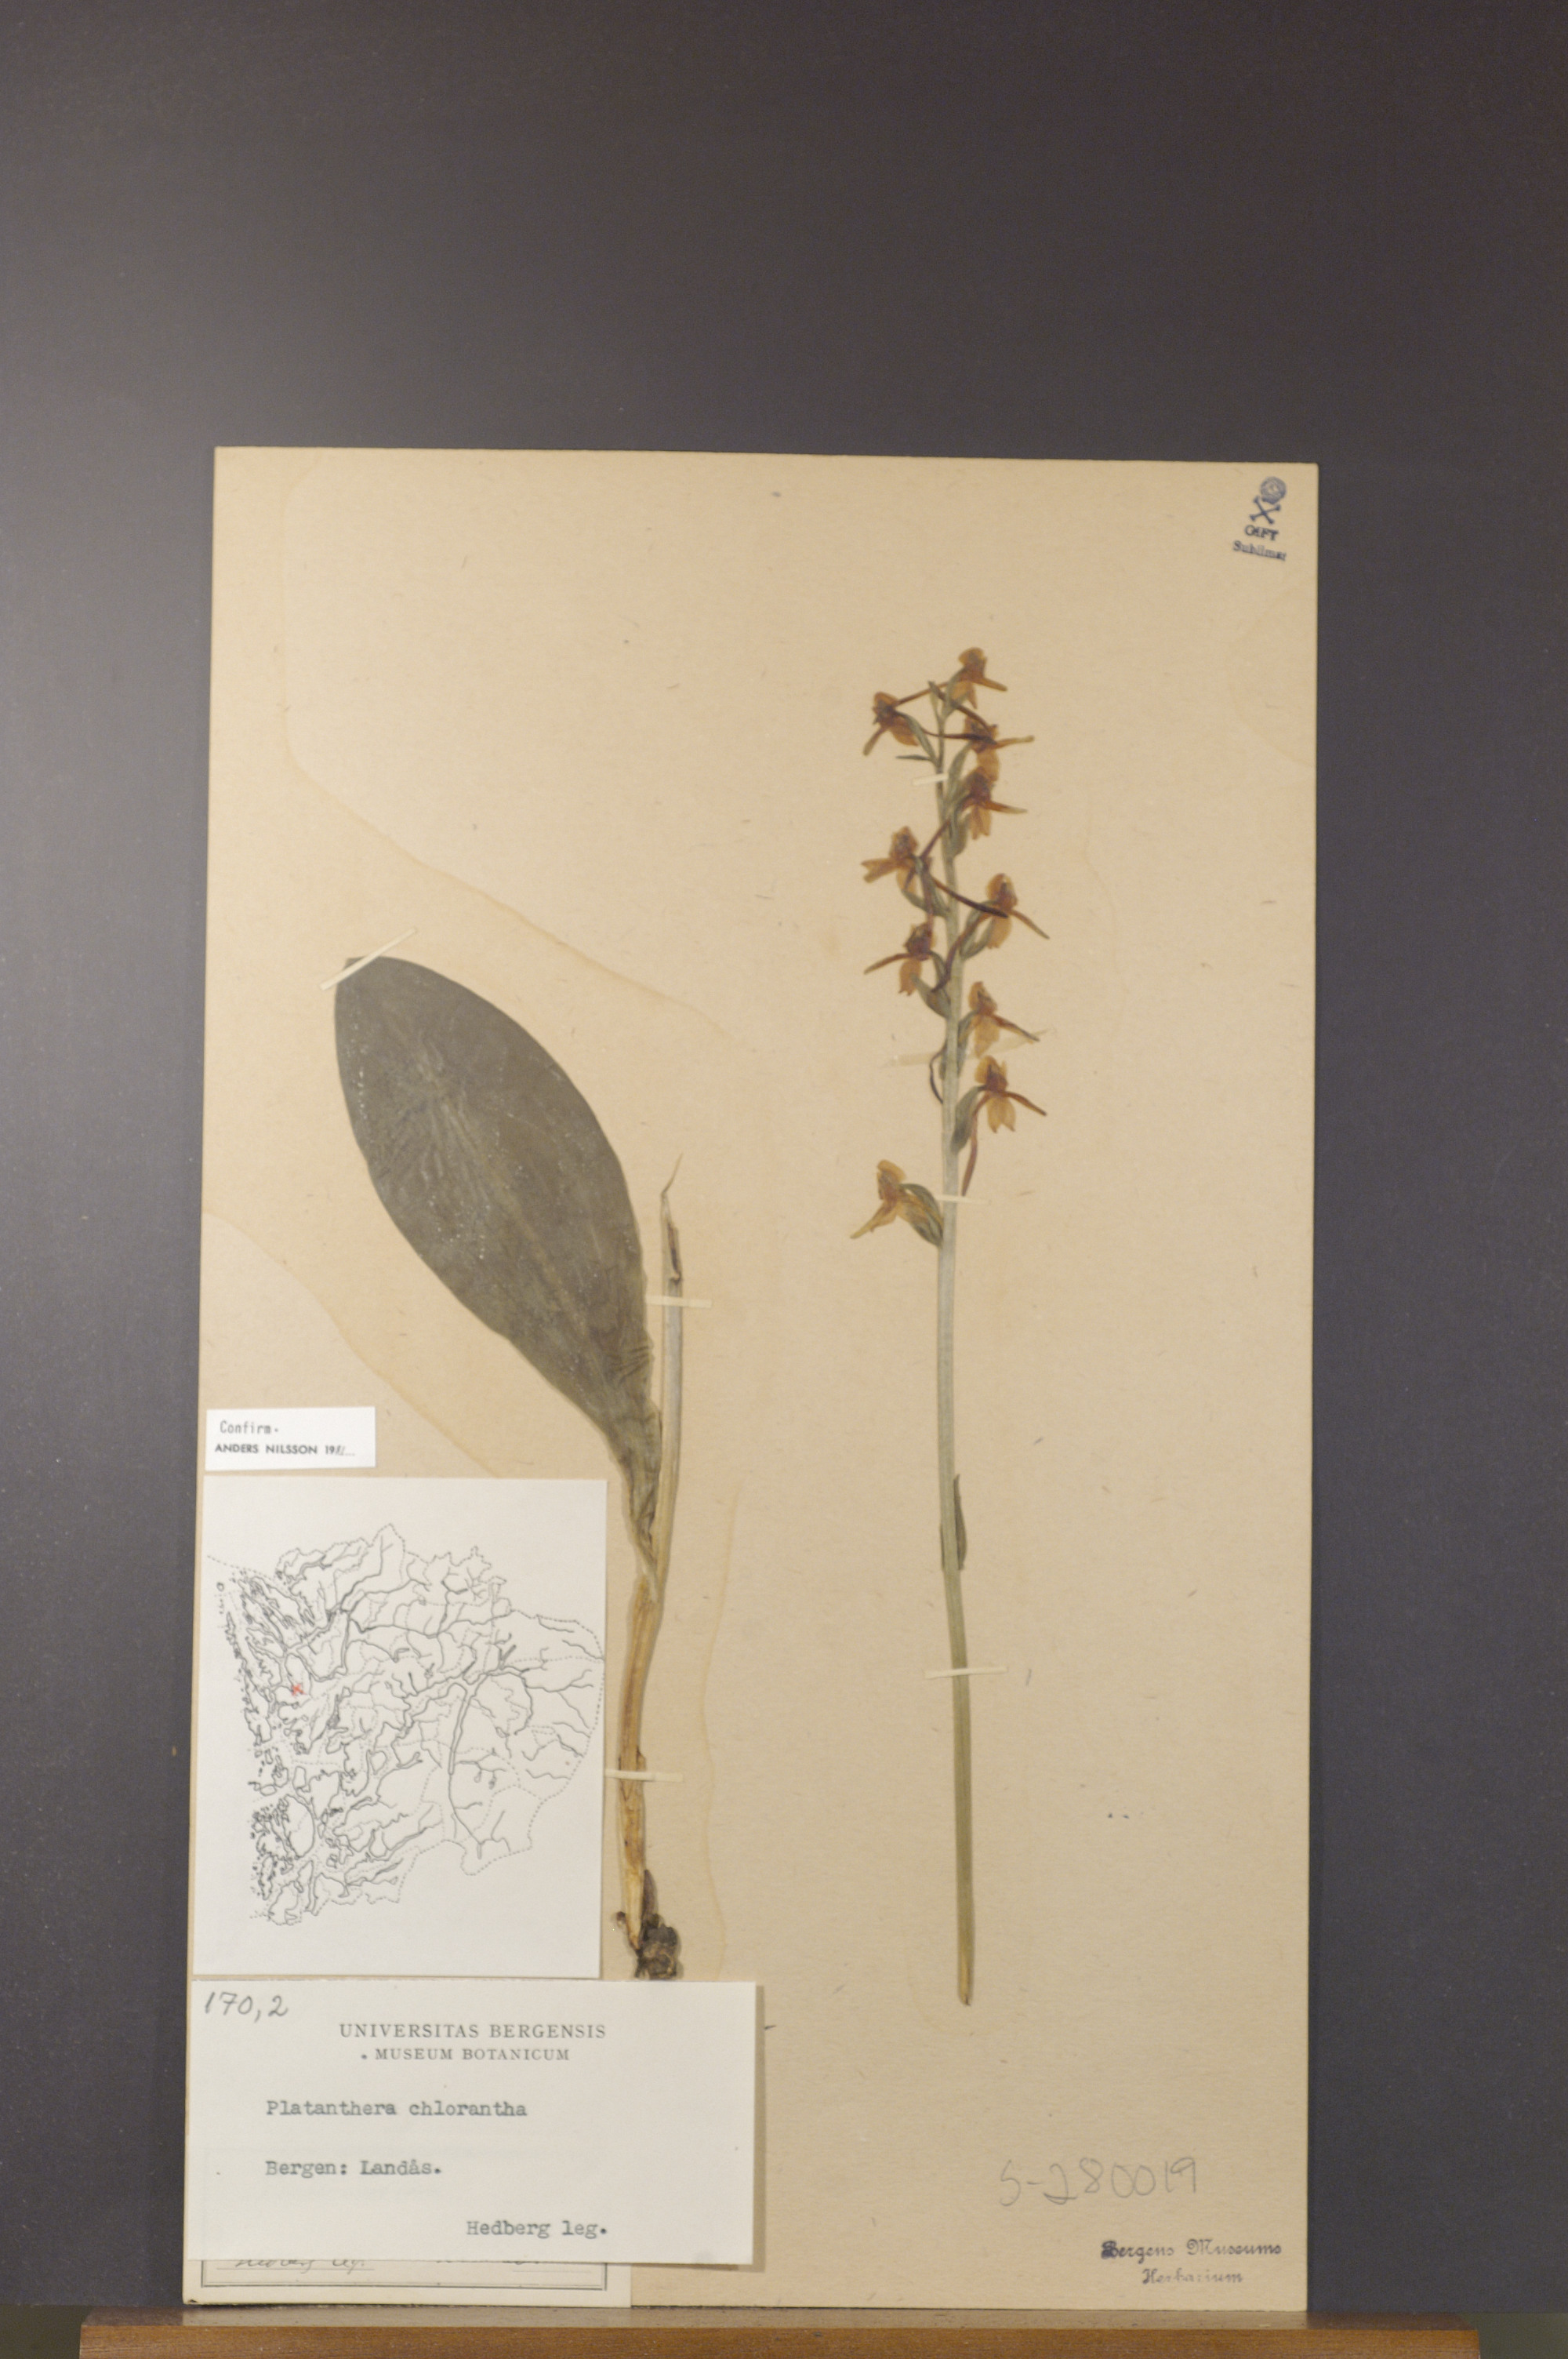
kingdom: Plantae
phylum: Tracheophyta
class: Liliopsida
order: Asparagales
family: Orchidaceae
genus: Platanthera
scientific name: Platanthera chlorantha
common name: Greater butterfly-orchid
